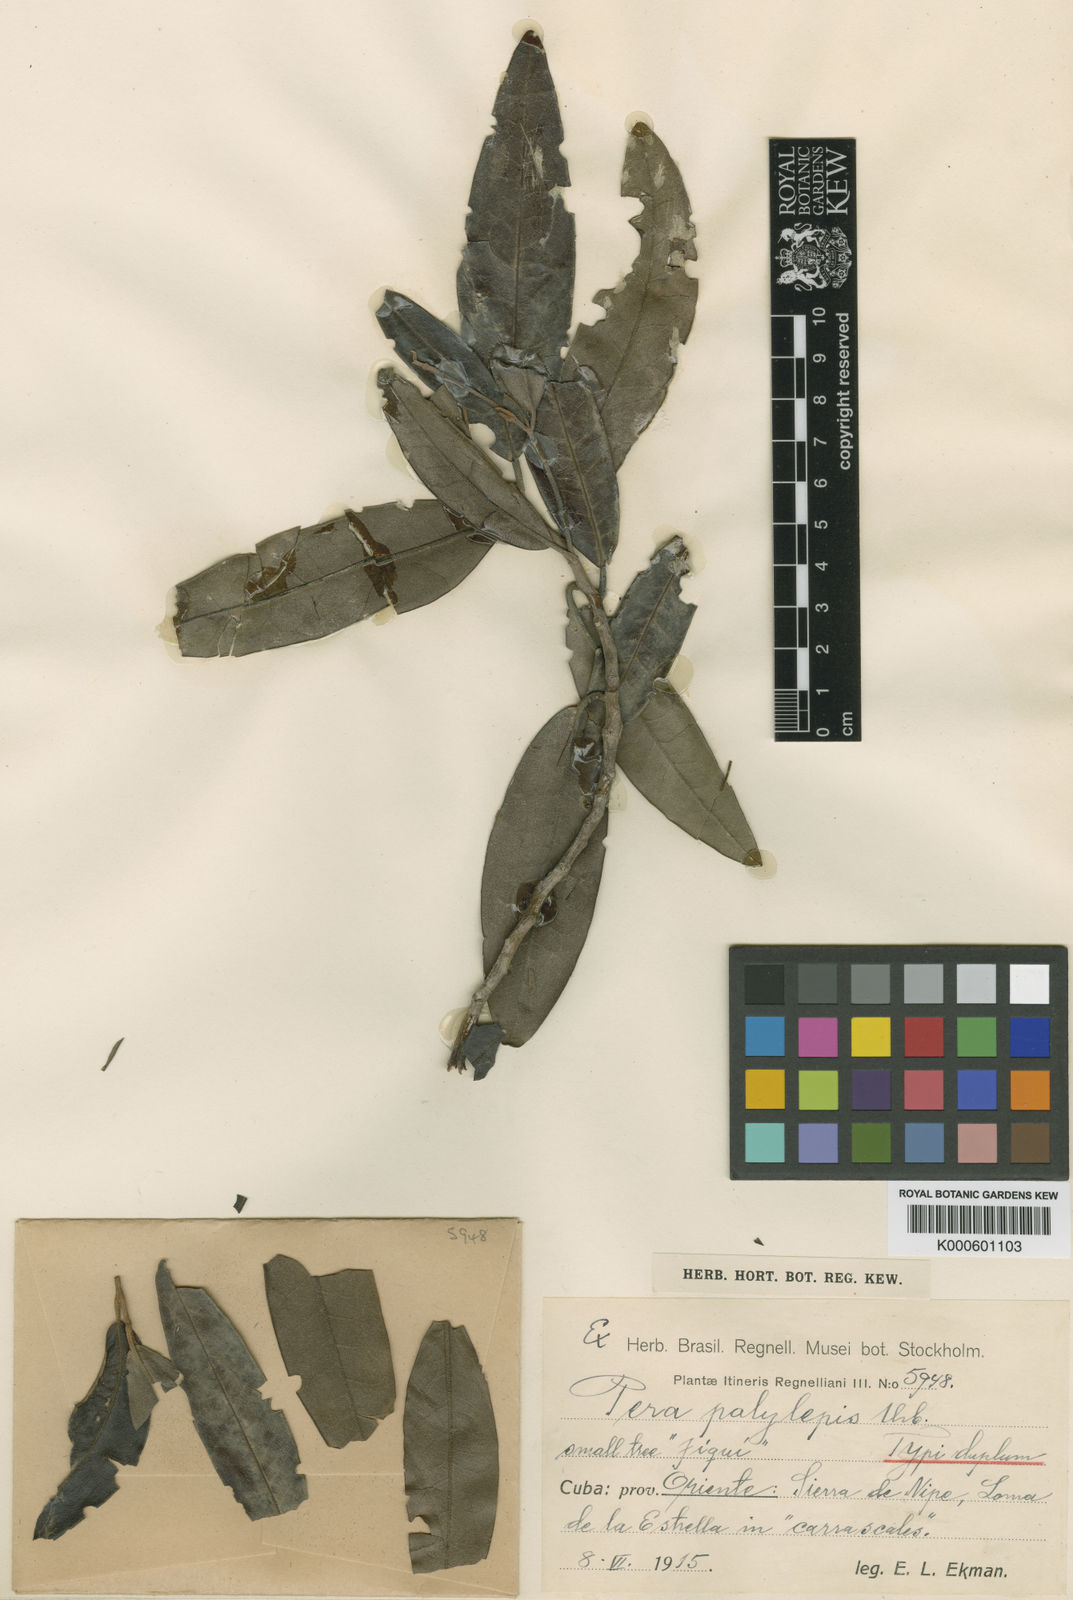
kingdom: Plantae
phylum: Tracheophyta
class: Magnoliopsida
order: Malpighiales
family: Peraceae
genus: Pera
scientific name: Pera polylepis
